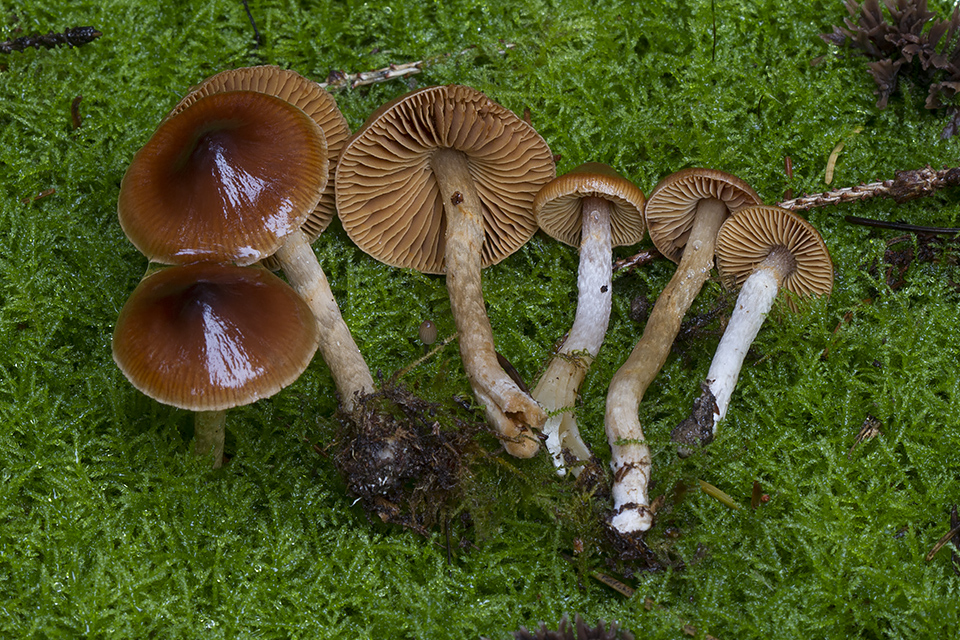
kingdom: Fungi
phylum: Basidiomycota
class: Agaricomycetes
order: Agaricales
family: Cortinariaceae
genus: Cortinarius
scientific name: Cortinarius
